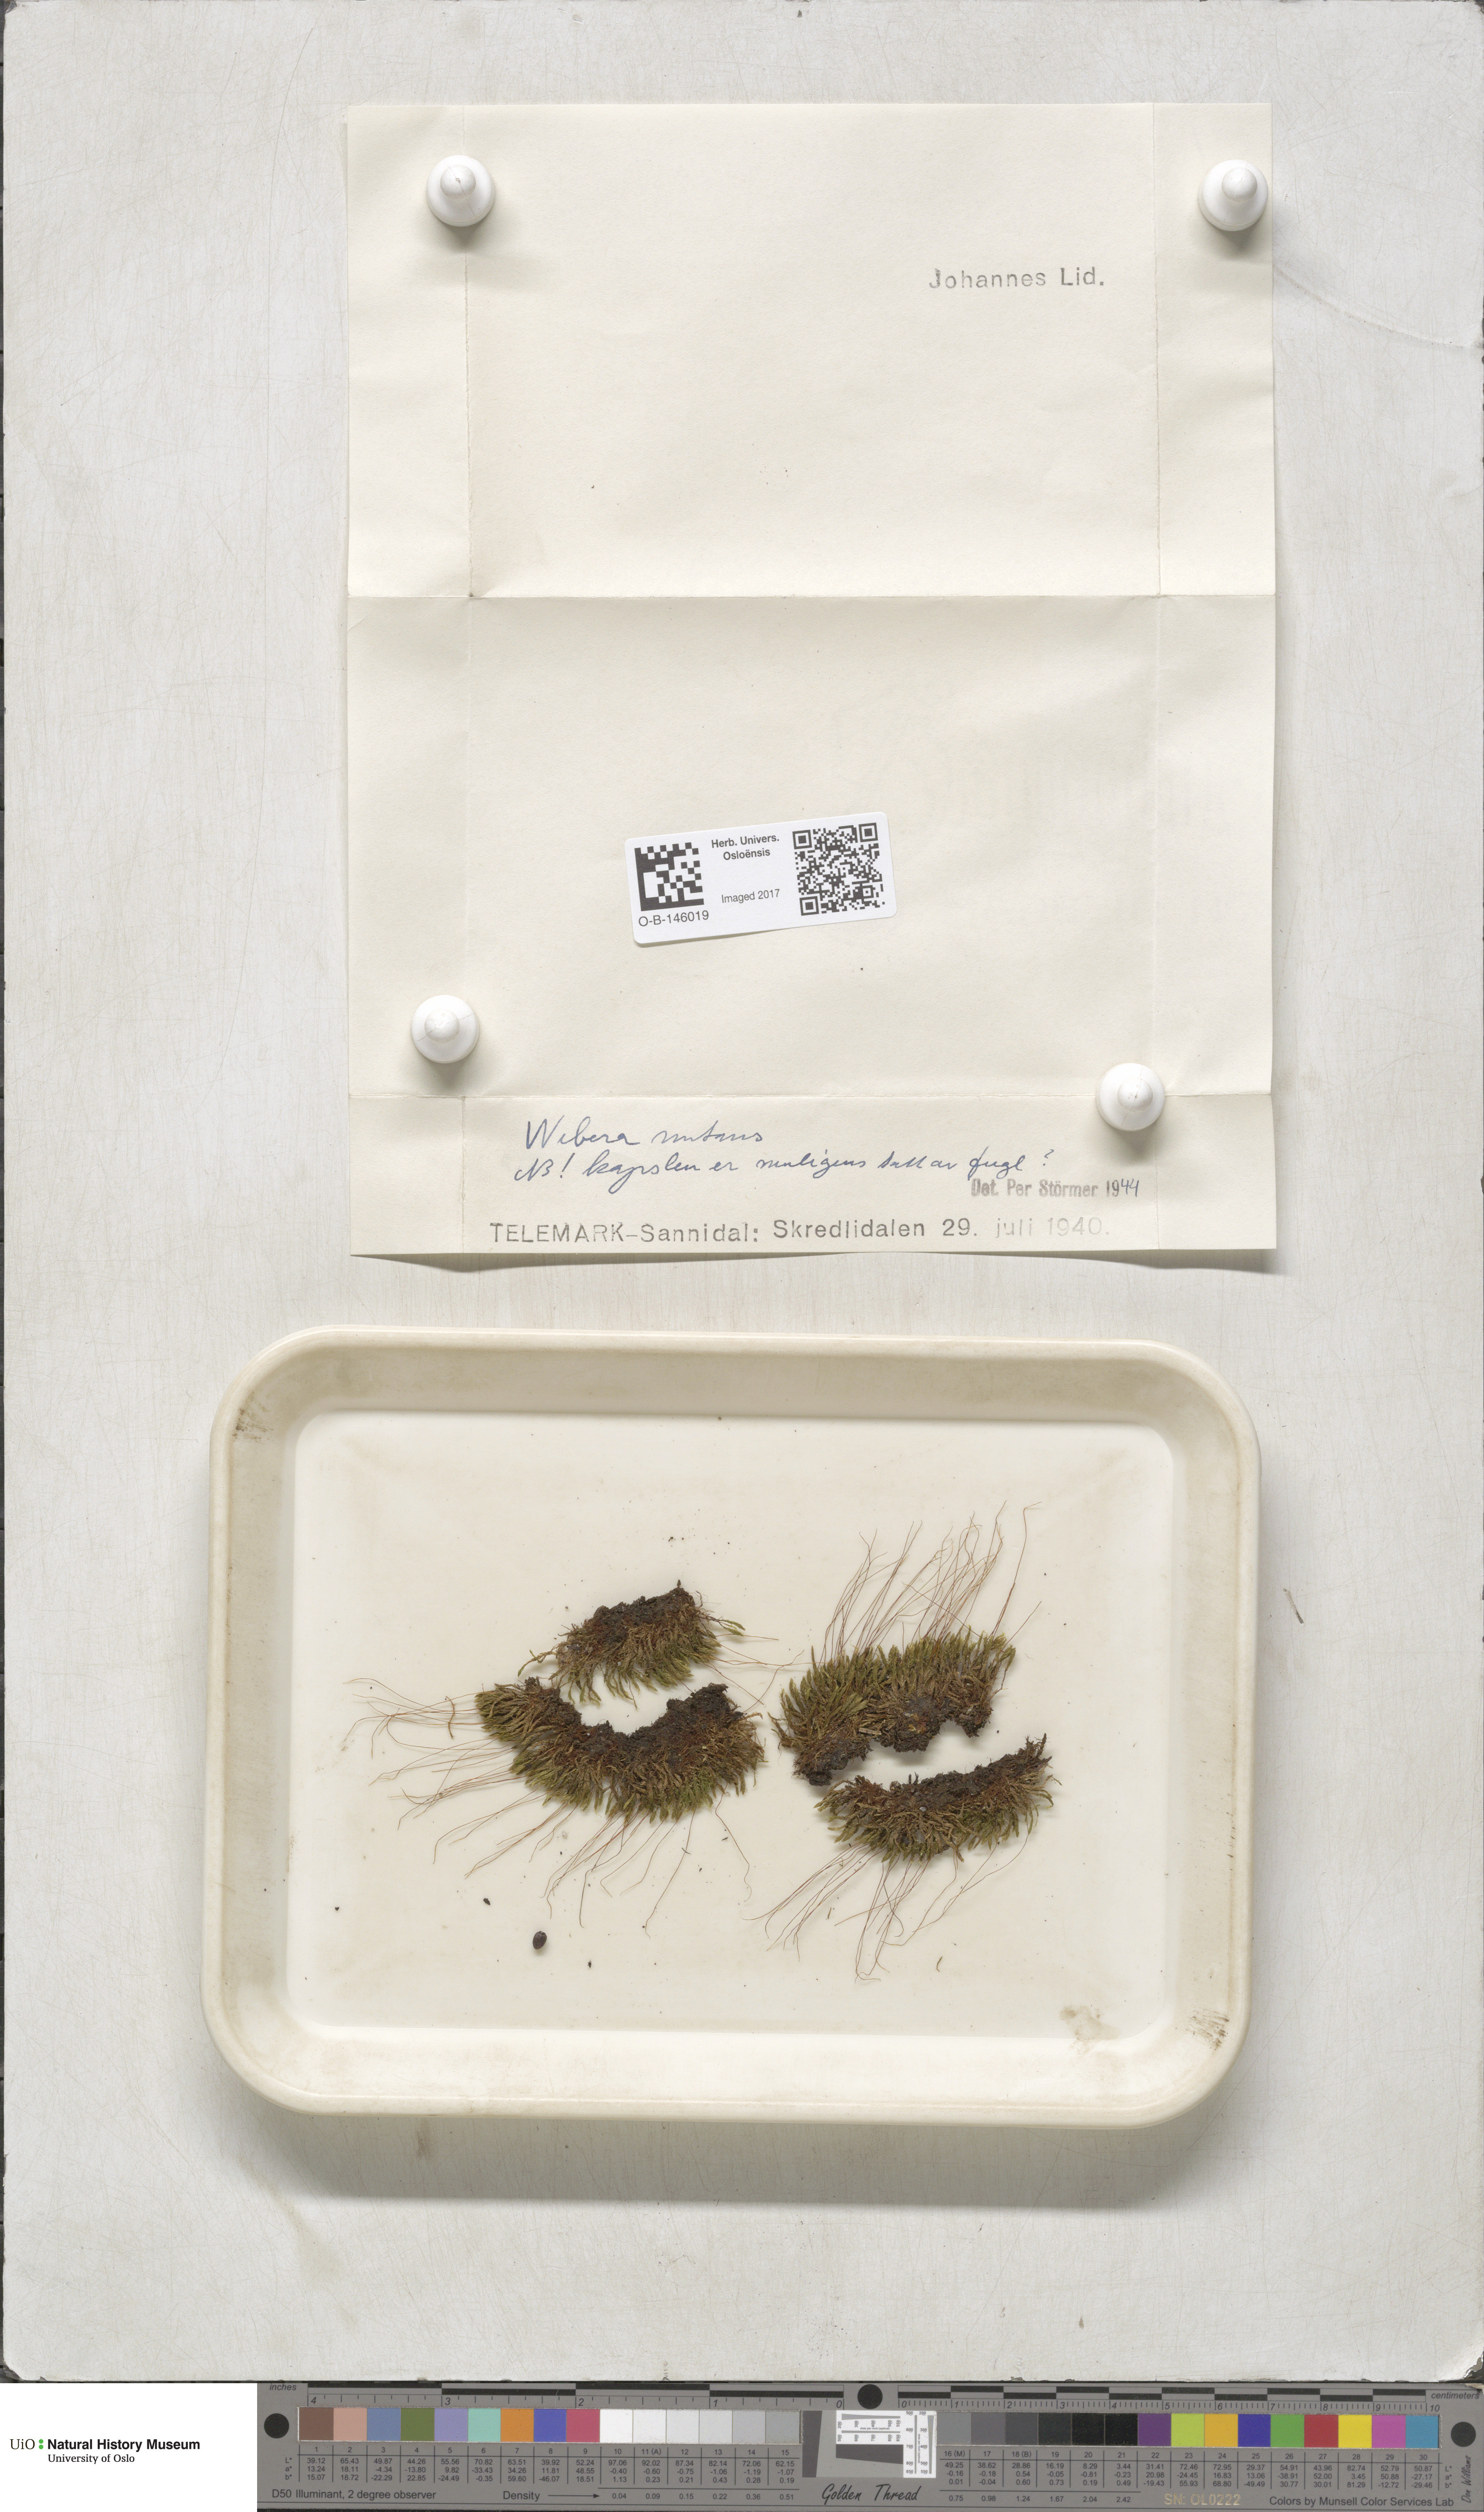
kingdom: Plantae
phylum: Bryophyta
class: Bryopsida
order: Bryales
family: Mniaceae
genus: Pohlia
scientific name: Pohlia nutans
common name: Nodding thread-moss
